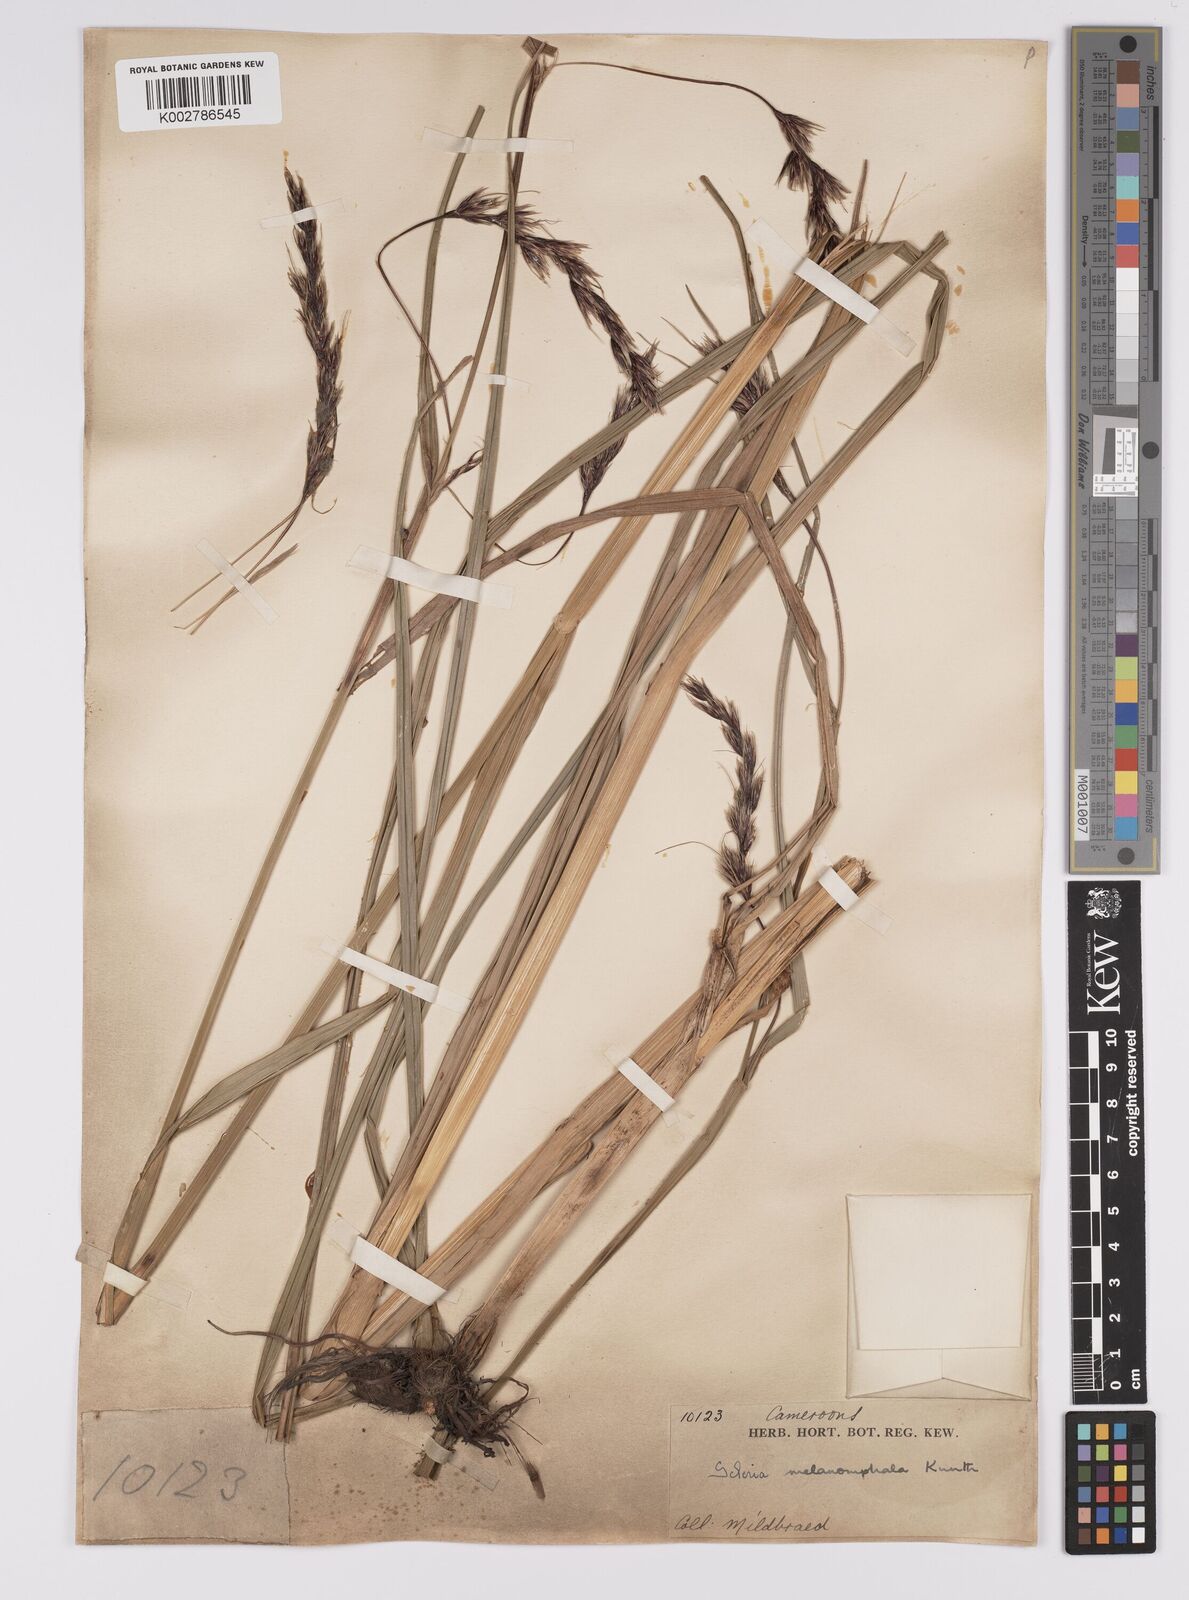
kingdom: Plantae
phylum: Tracheophyta
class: Liliopsida
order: Poales
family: Cyperaceae
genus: Scleria
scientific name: Scleria melanomphala
